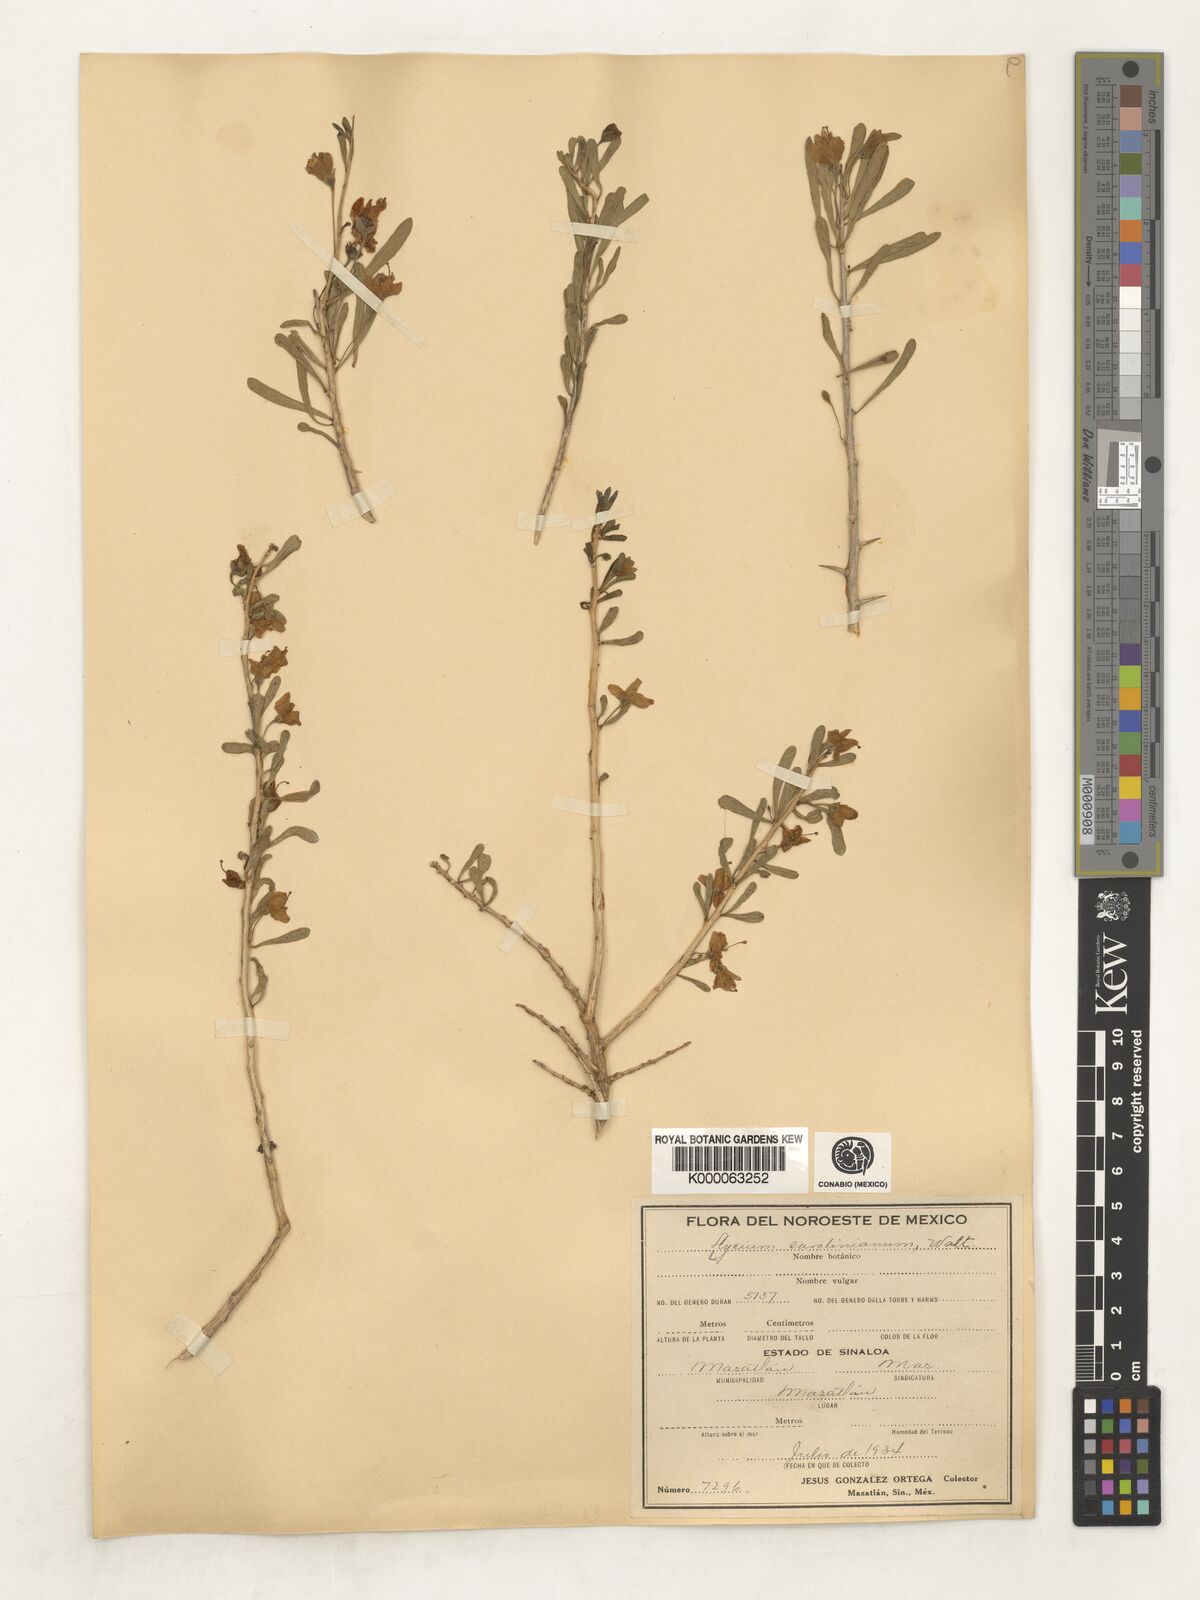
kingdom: Plantae
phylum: Tracheophyta
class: Magnoliopsida
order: Solanales
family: Solanaceae
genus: Lycium
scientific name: Lycium
